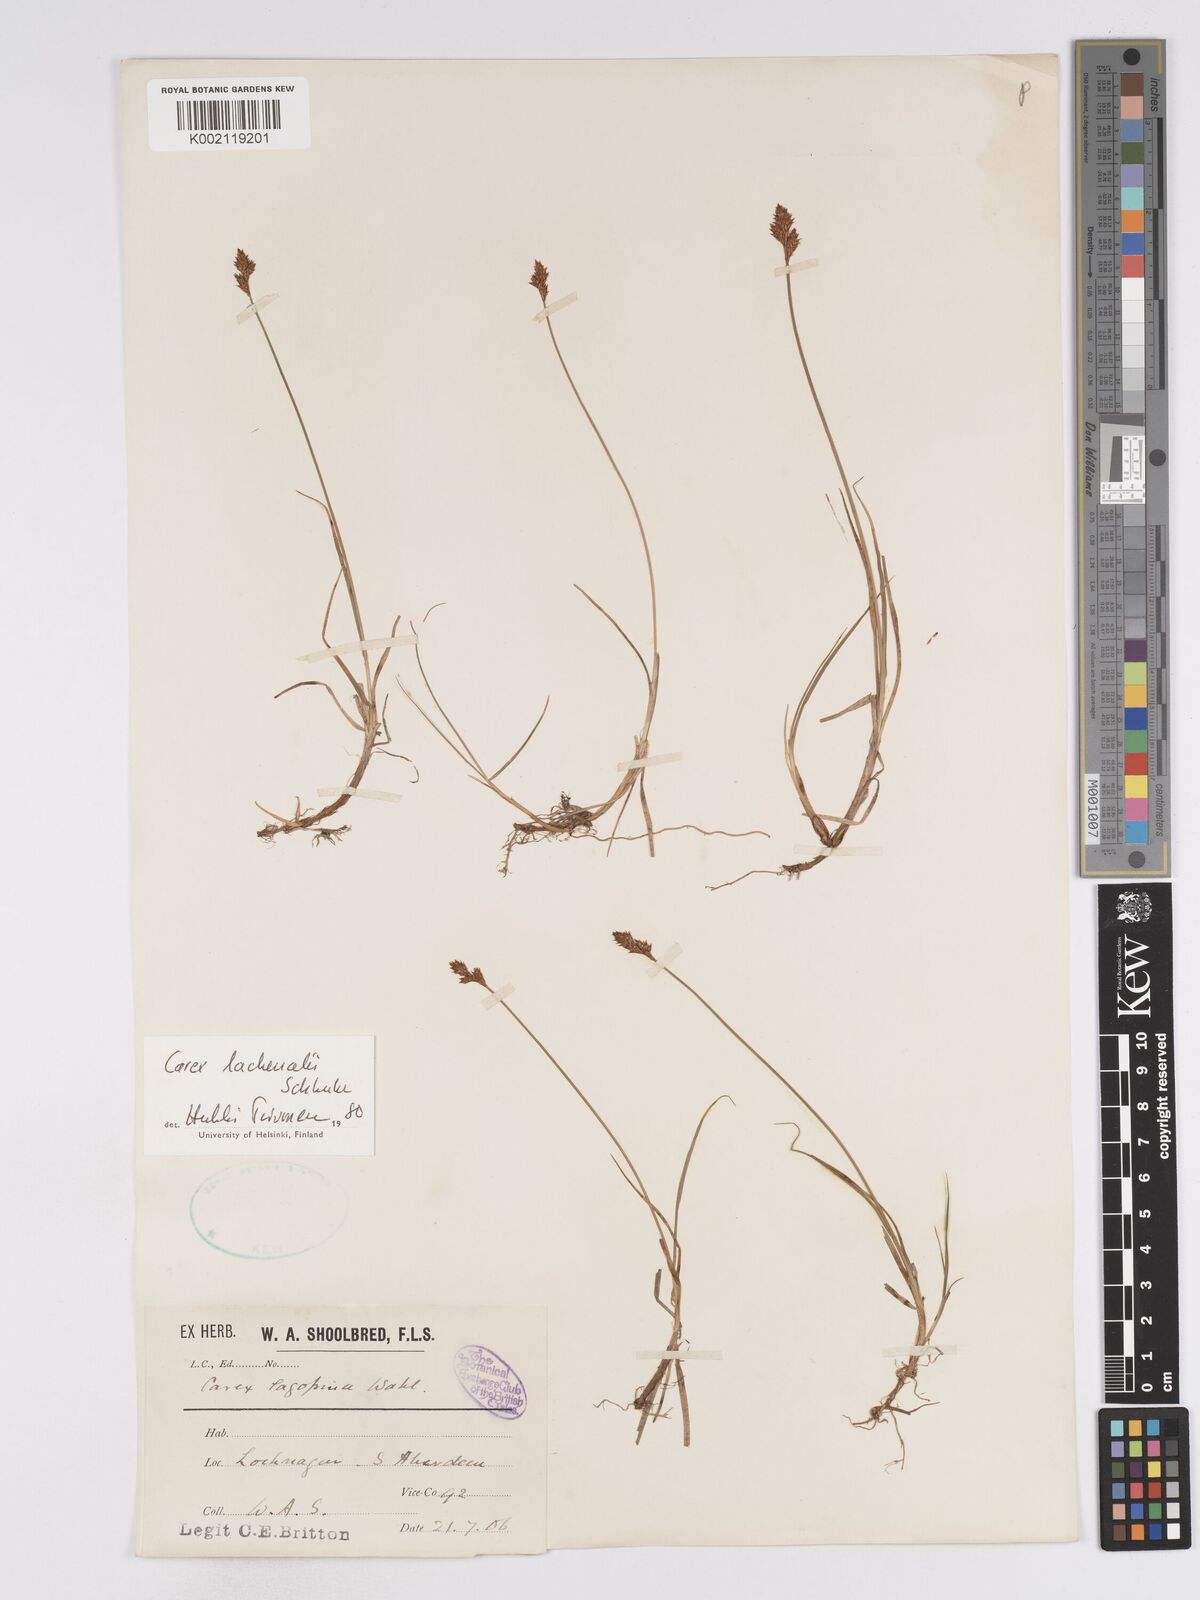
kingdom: Plantae
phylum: Tracheophyta
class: Liliopsida
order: Poales
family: Cyperaceae
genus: Carex
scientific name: Carex lachenalii
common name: Hare's-foot sedge
